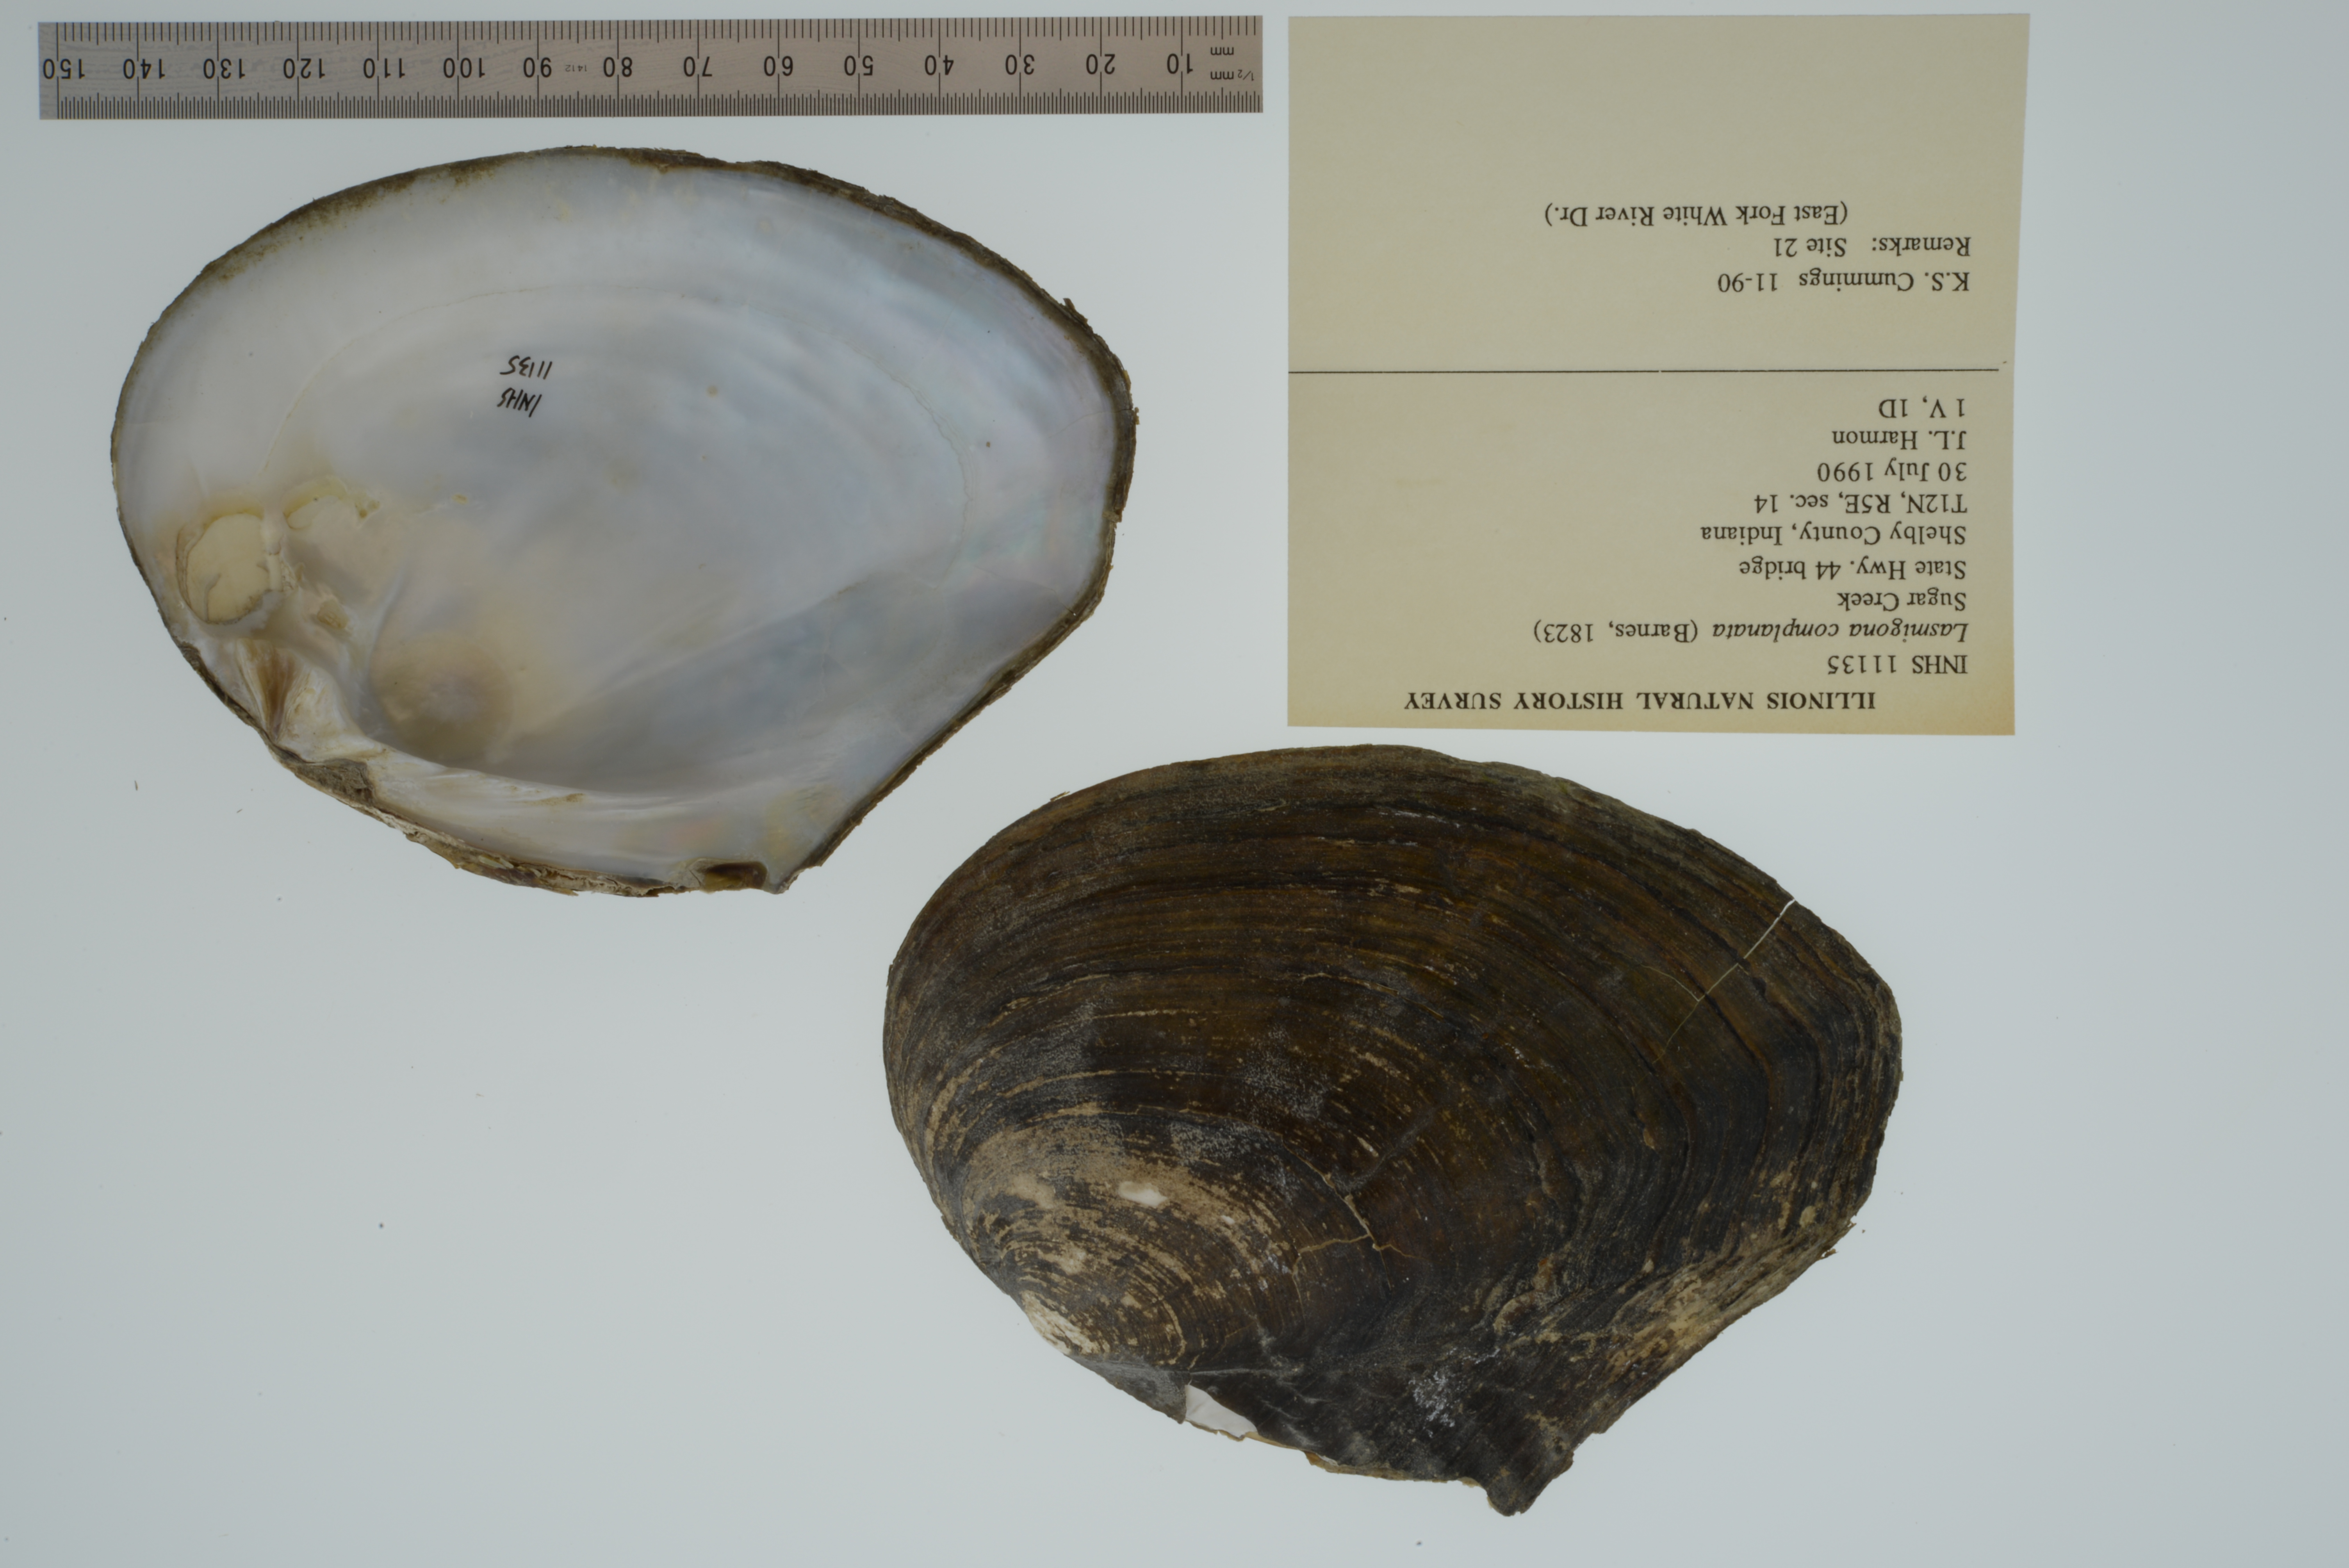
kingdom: Animalia
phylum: Mollusca
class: Bivalvia
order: Unionida
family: Unionidae
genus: Lasmigona
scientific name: Lasmigona complanata
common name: White heelsplitter
